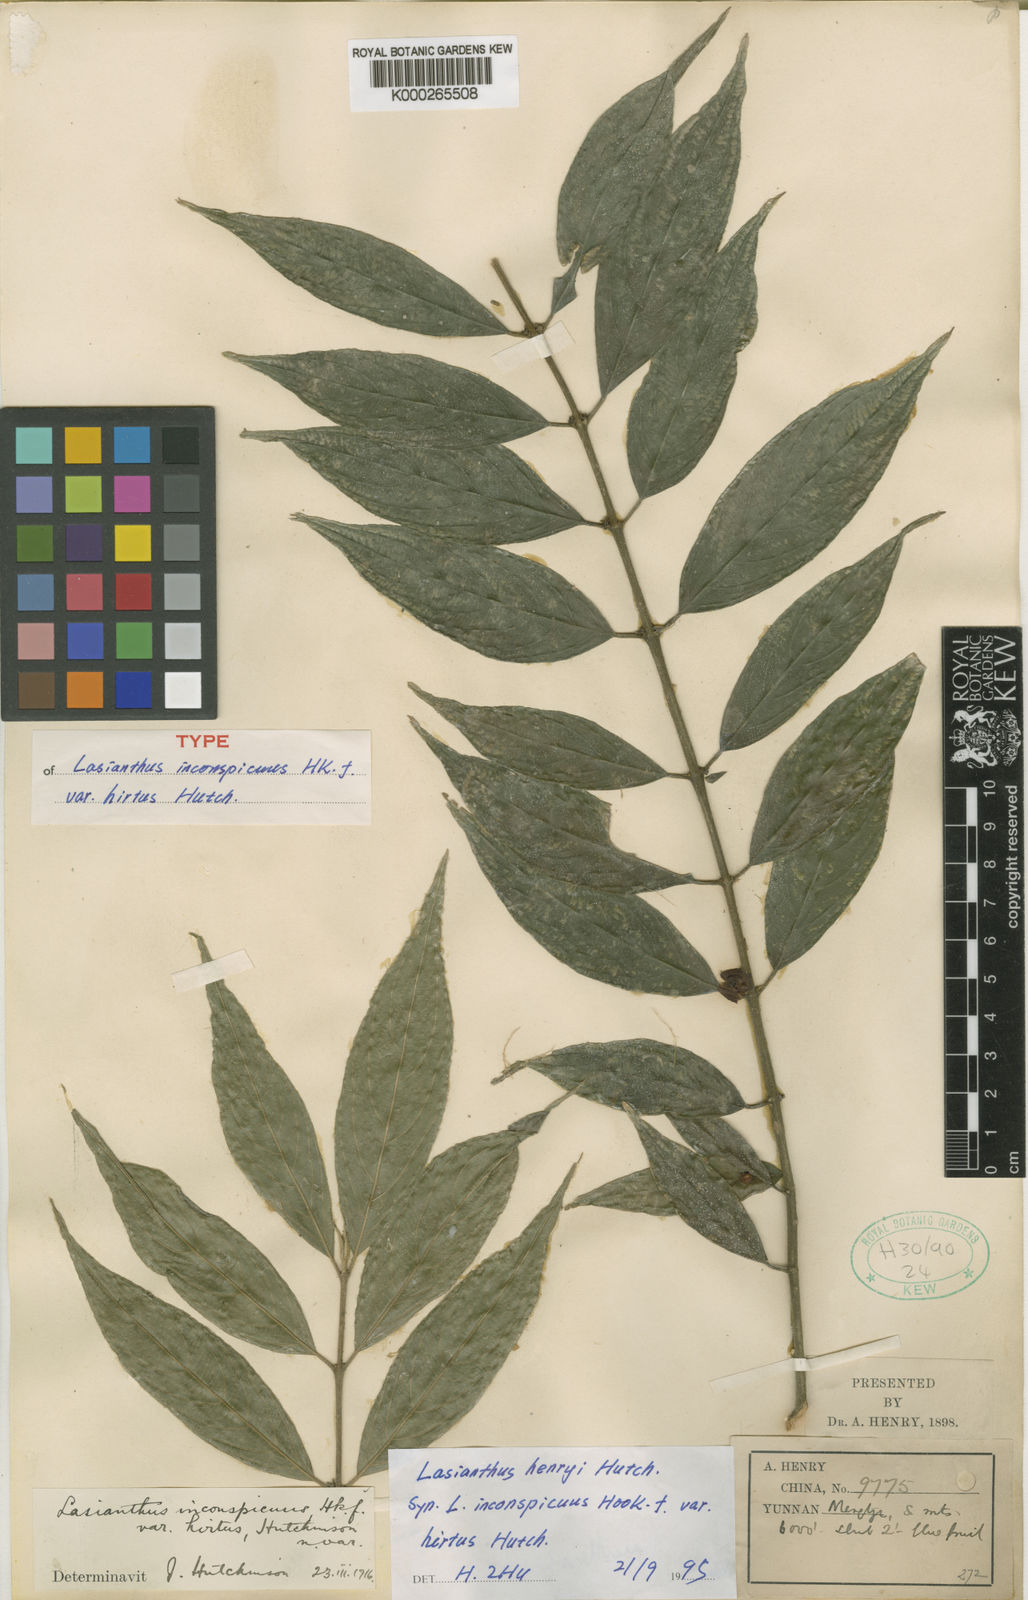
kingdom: Plantae
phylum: Tracheophyta
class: Magnoliopsida
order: Gentianales
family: Rubiaceae
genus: Lasianthus
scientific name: Lasianthus henryi
